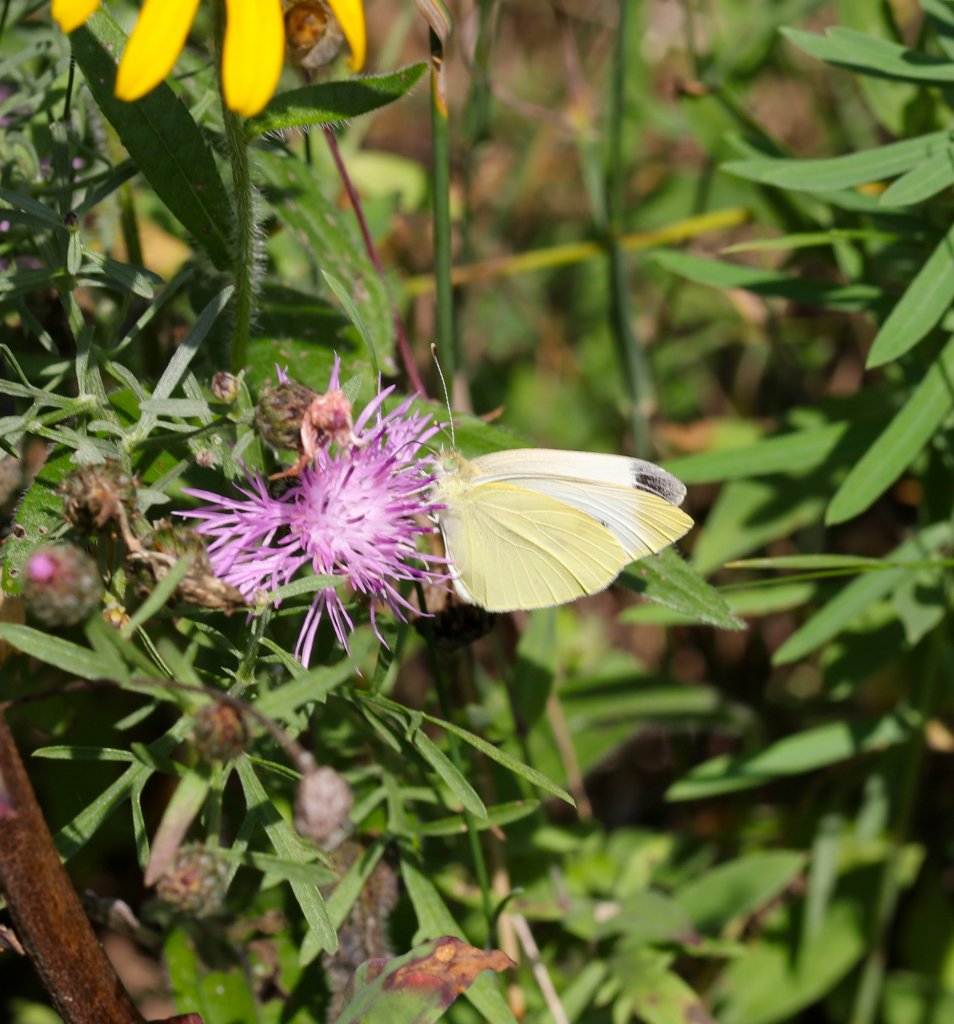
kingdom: Animalia
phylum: Arthropoda
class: Insecta
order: Lepidoptera
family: Pieridae
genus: Pieris
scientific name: Pieris rapae
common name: Cabbage White
